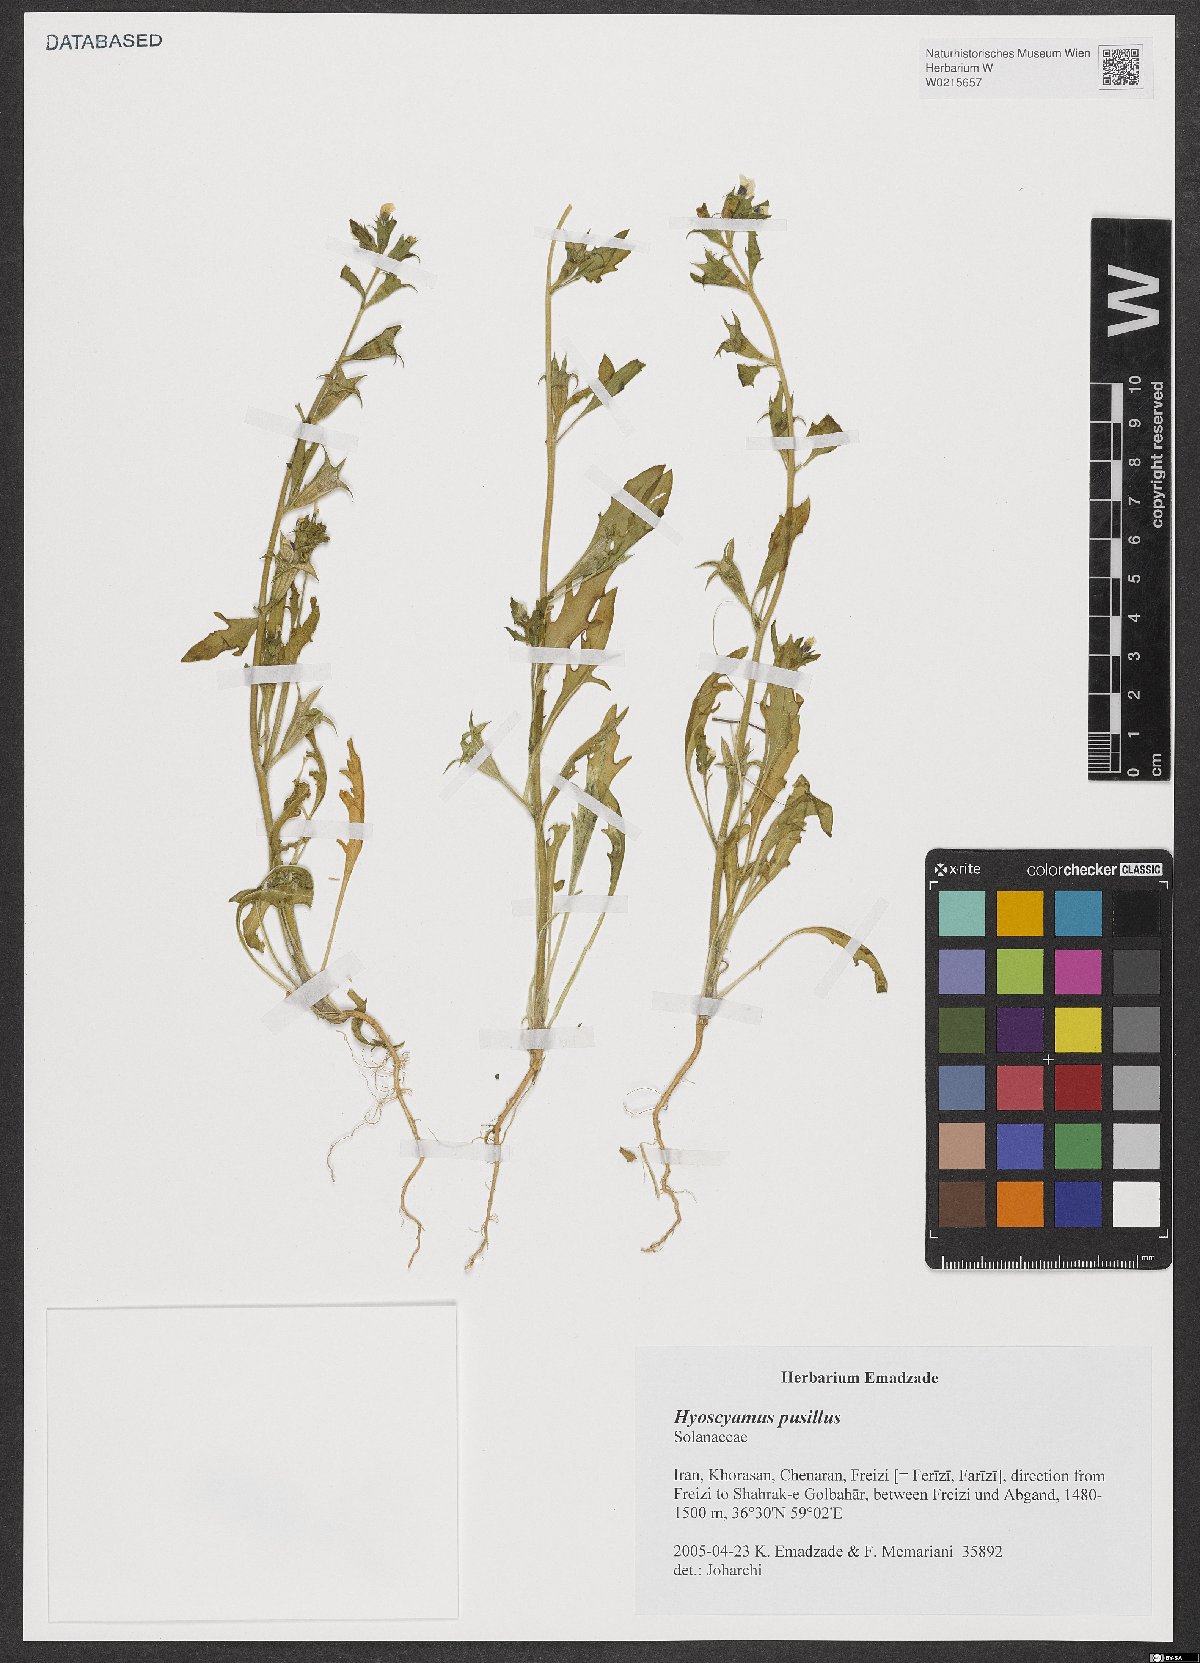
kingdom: Plantae
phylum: Tracheophyta
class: Magnoliopsida
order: Solanales
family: Solanaceae
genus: Hyoscyamus
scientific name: Hyoscyamus pusillus
